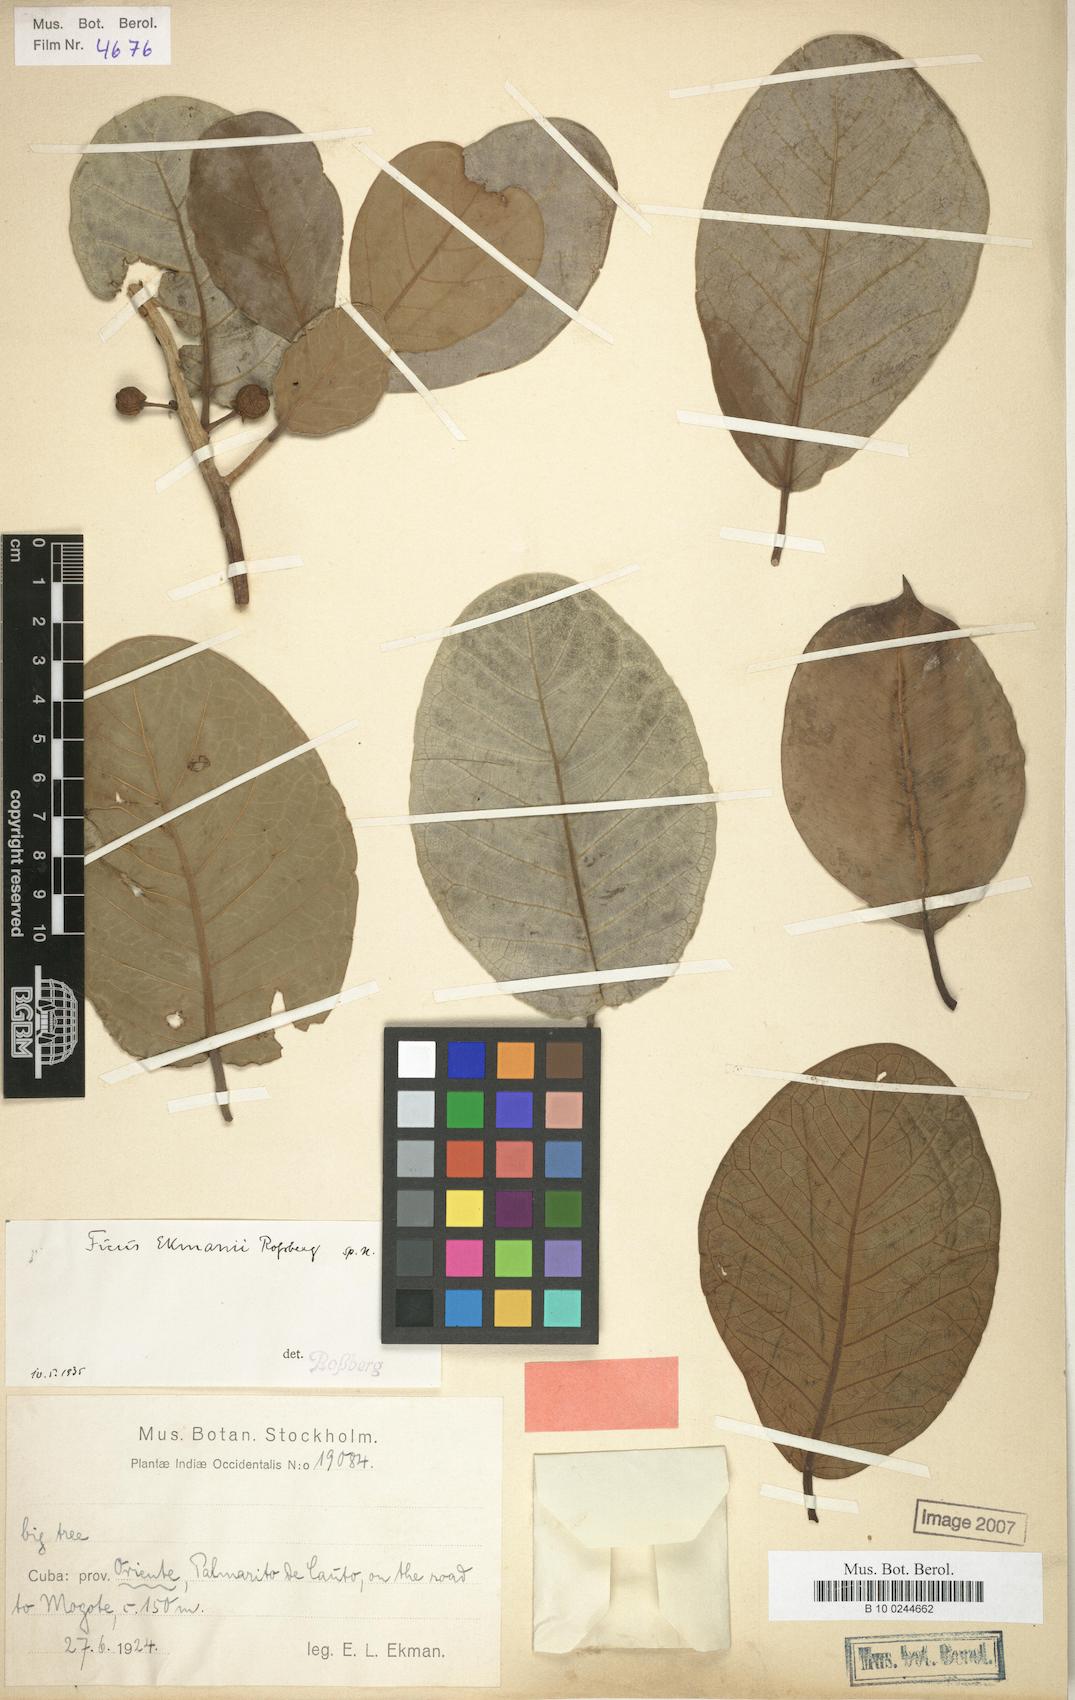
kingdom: Plantae
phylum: Tracheophyta
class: Magnoliopsida
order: Rosales
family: Moraceae
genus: Ficus
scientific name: Ficus crassinervia
